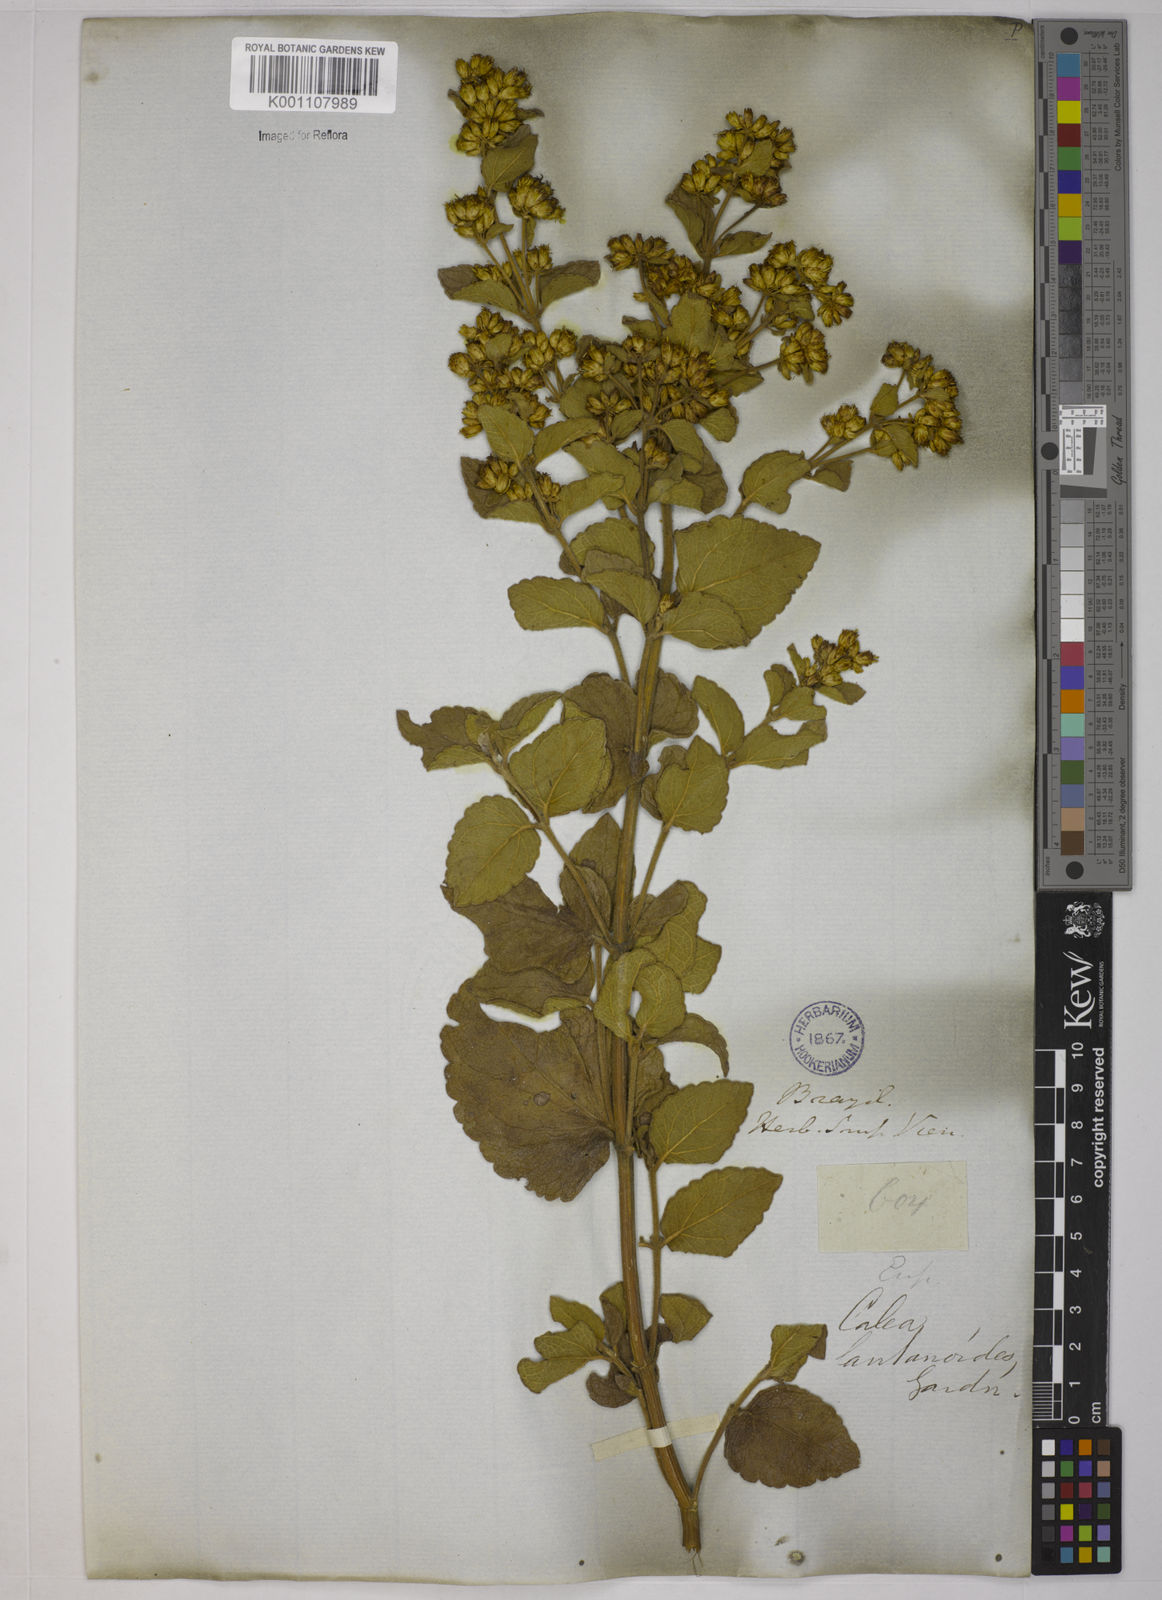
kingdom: Plantae
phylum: Tracheophyta
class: Magnoliopsida
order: Asterales
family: Asteraceae
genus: Calea
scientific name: Calea lantanoides
